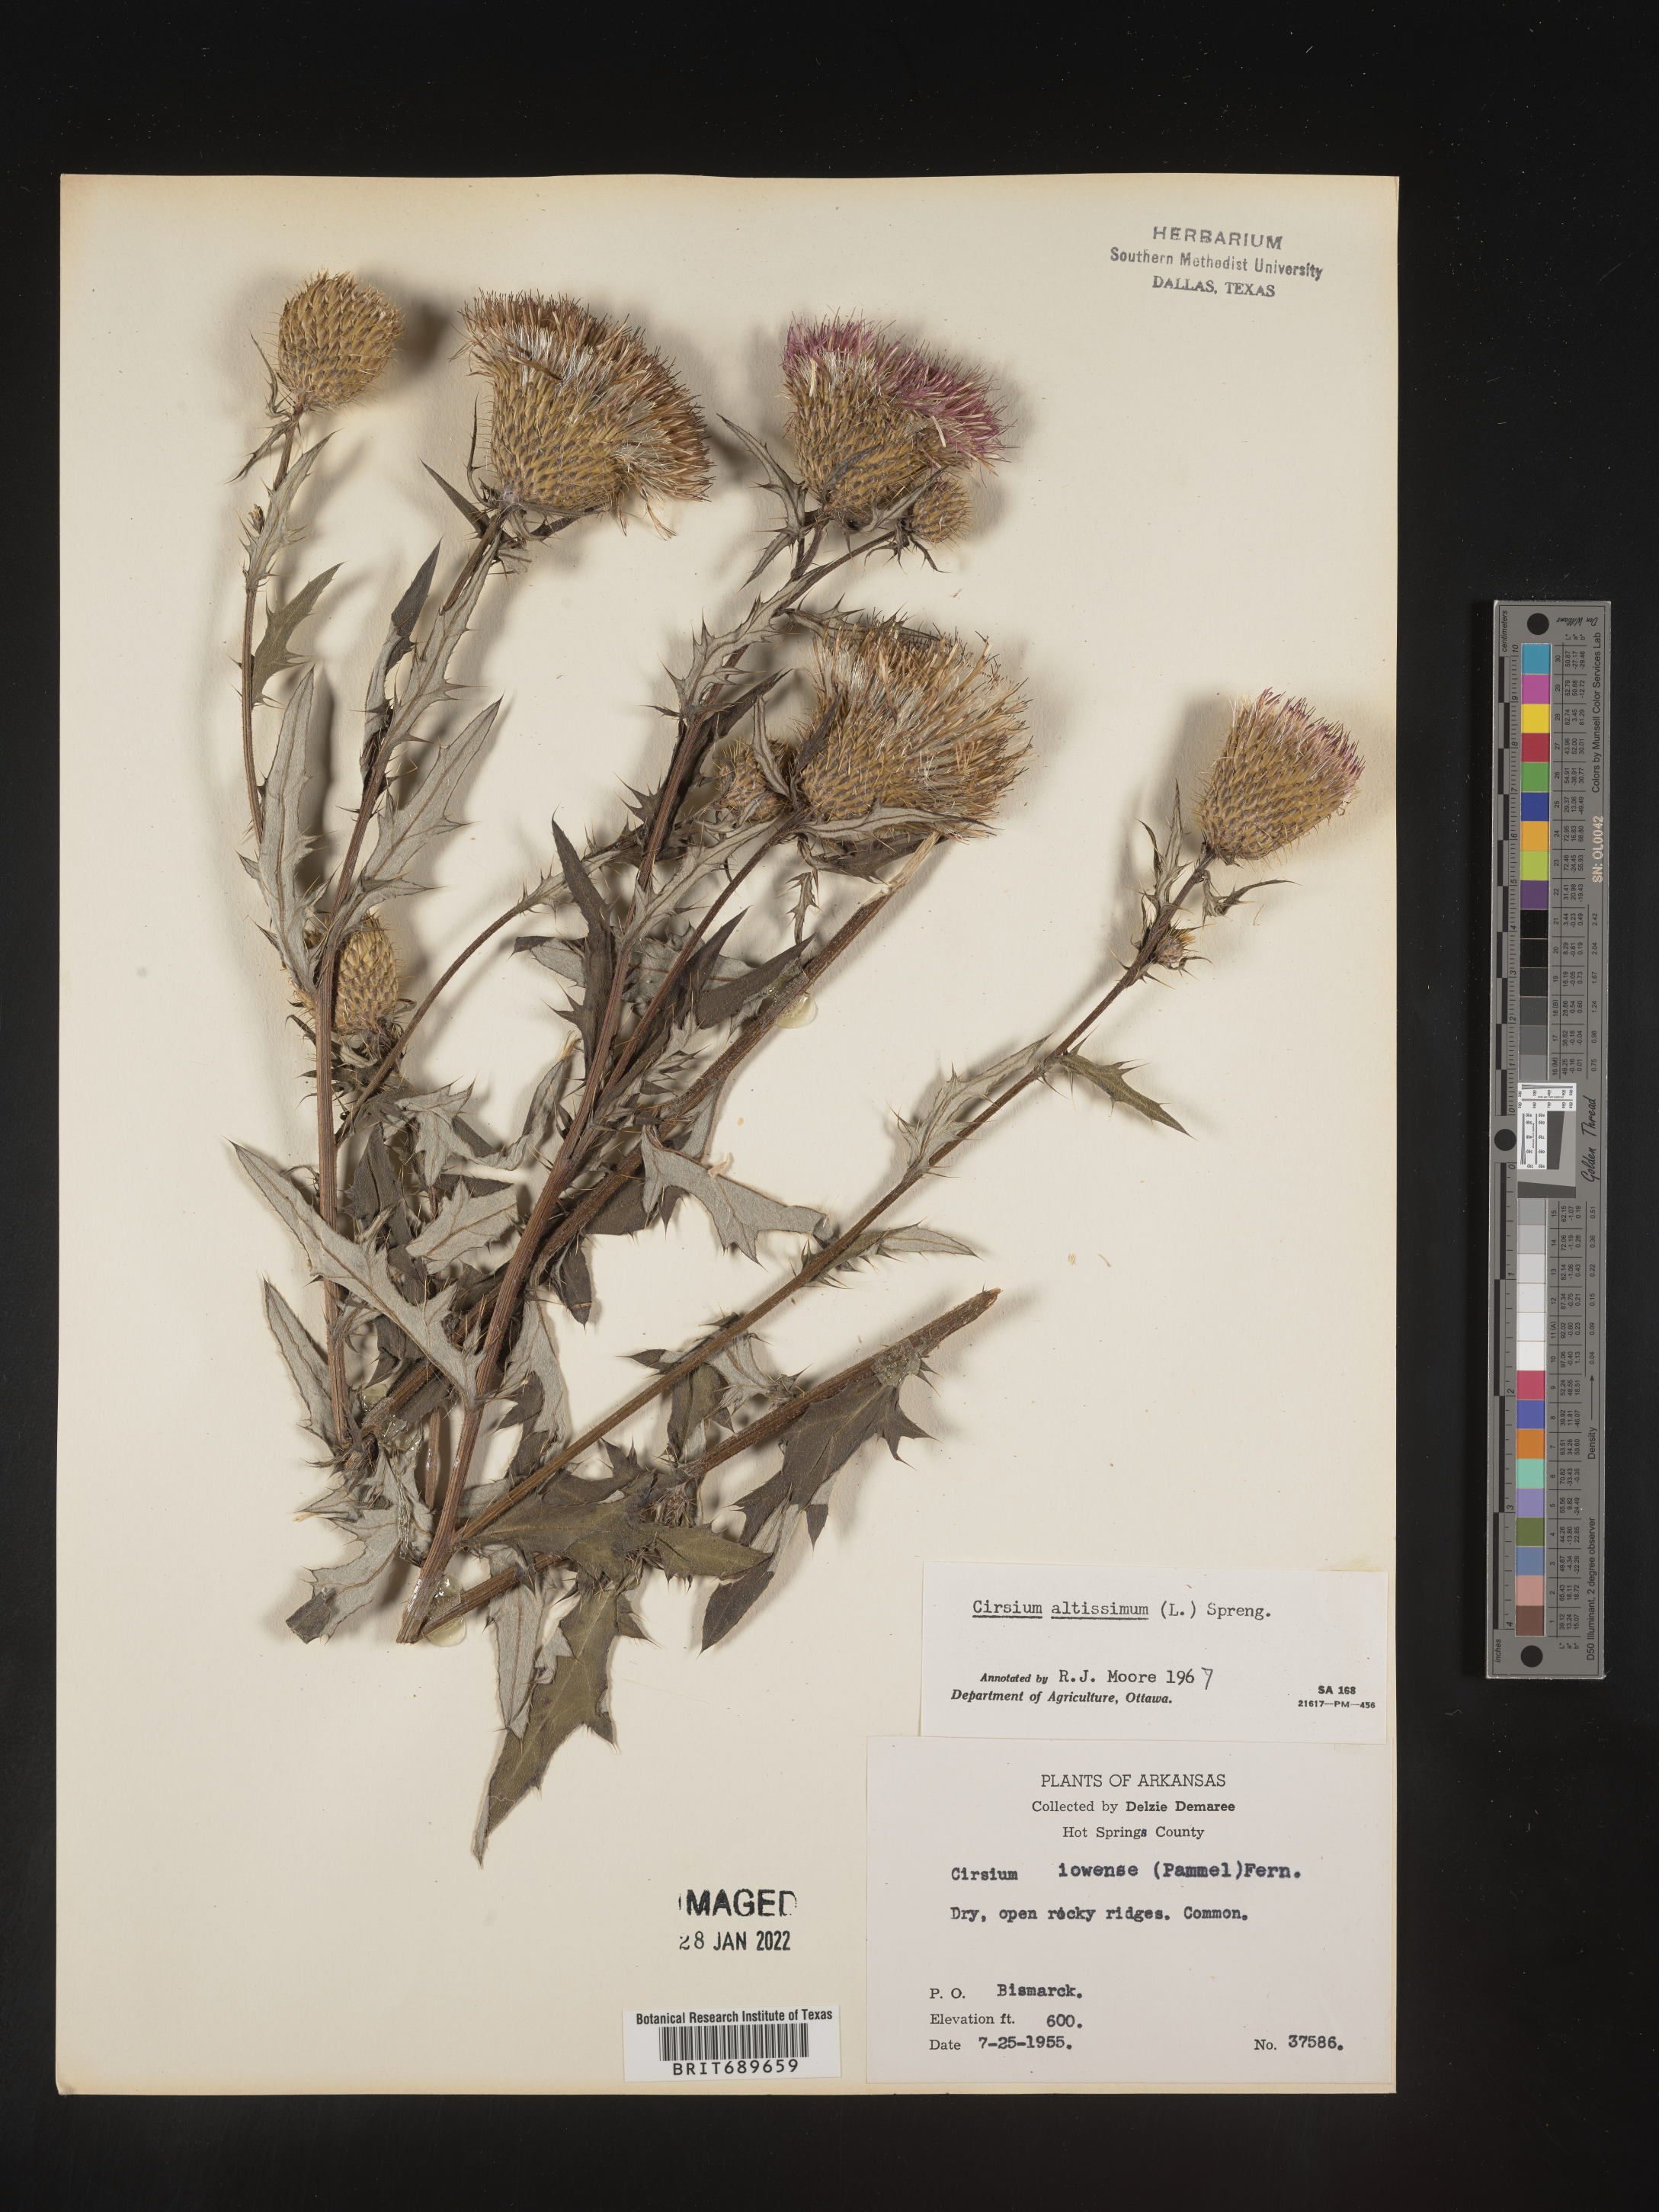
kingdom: Plantae
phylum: Tracheophyta
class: Magnoliopsida
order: Asterales
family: Asteraceae
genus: Cirsium
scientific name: Cirsium altissimum
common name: Roadside thistle
